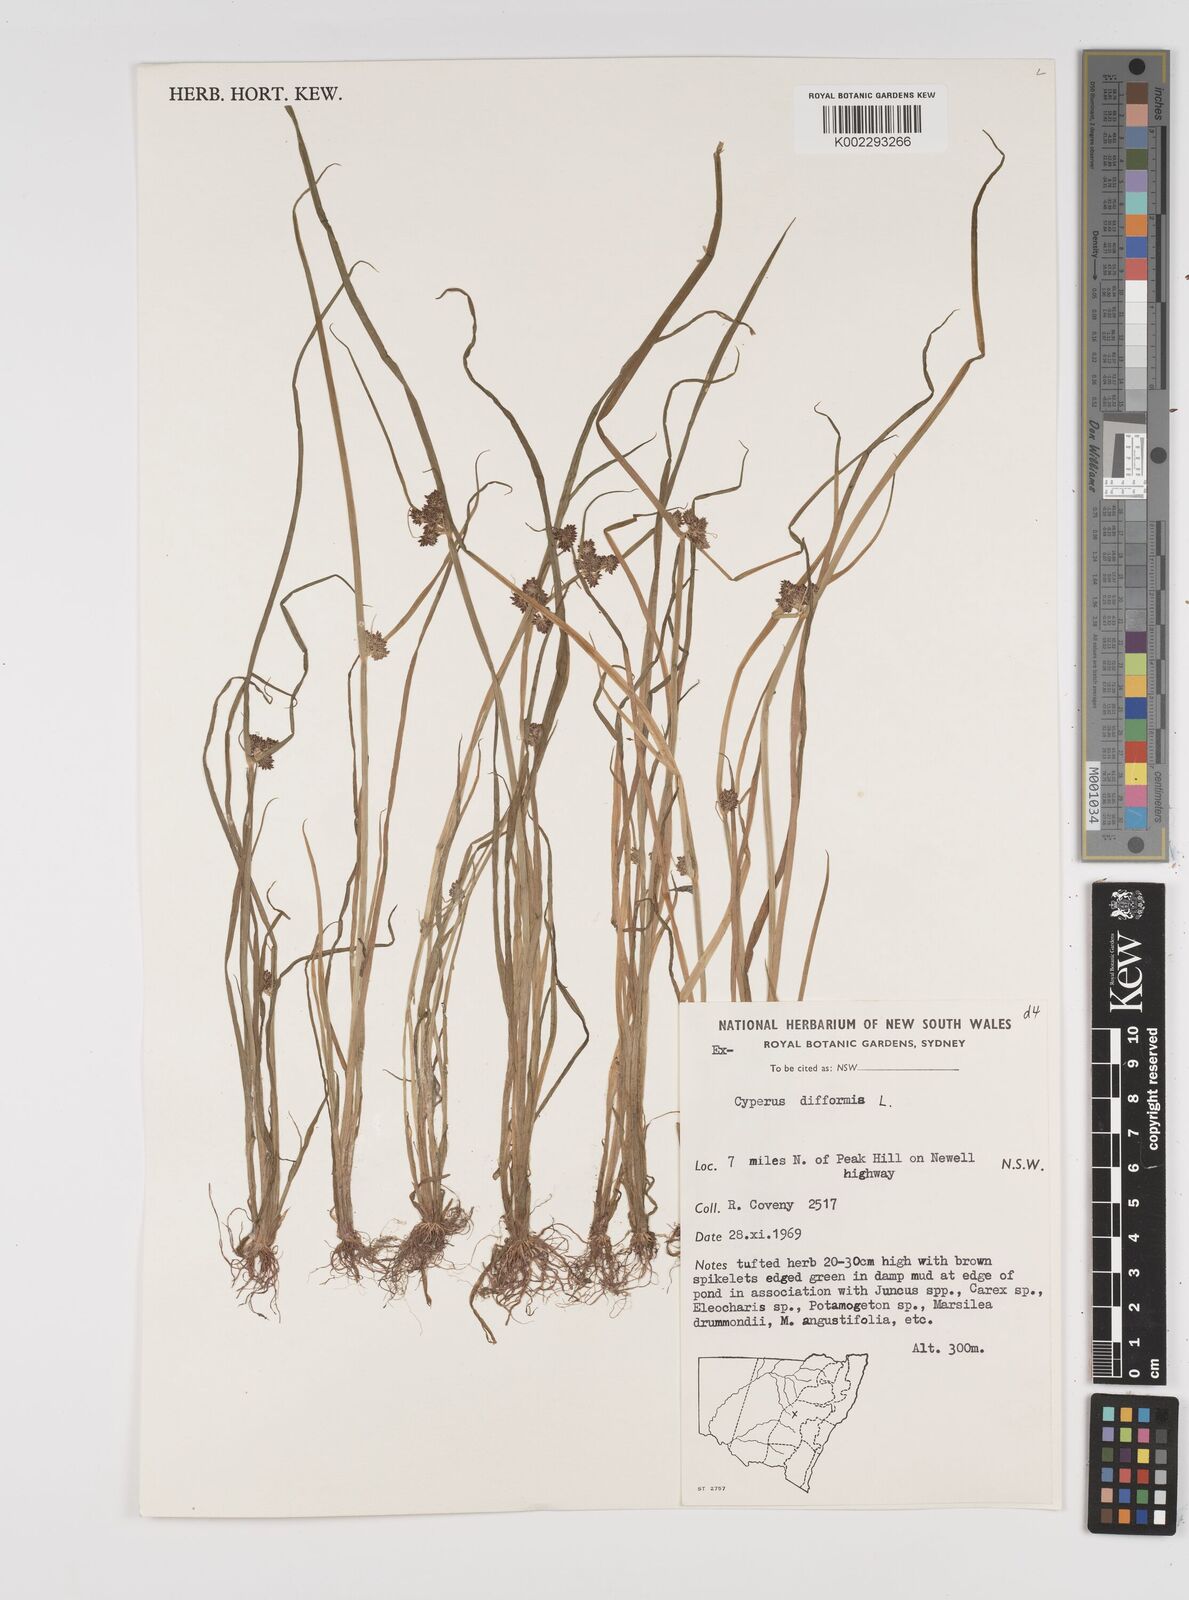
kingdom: Plantae
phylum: Tracheophyta
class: Liliopsida
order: Poales
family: Cyperaceae
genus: Cyperus
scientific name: Cyperus difformis
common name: Variable flatsedge
